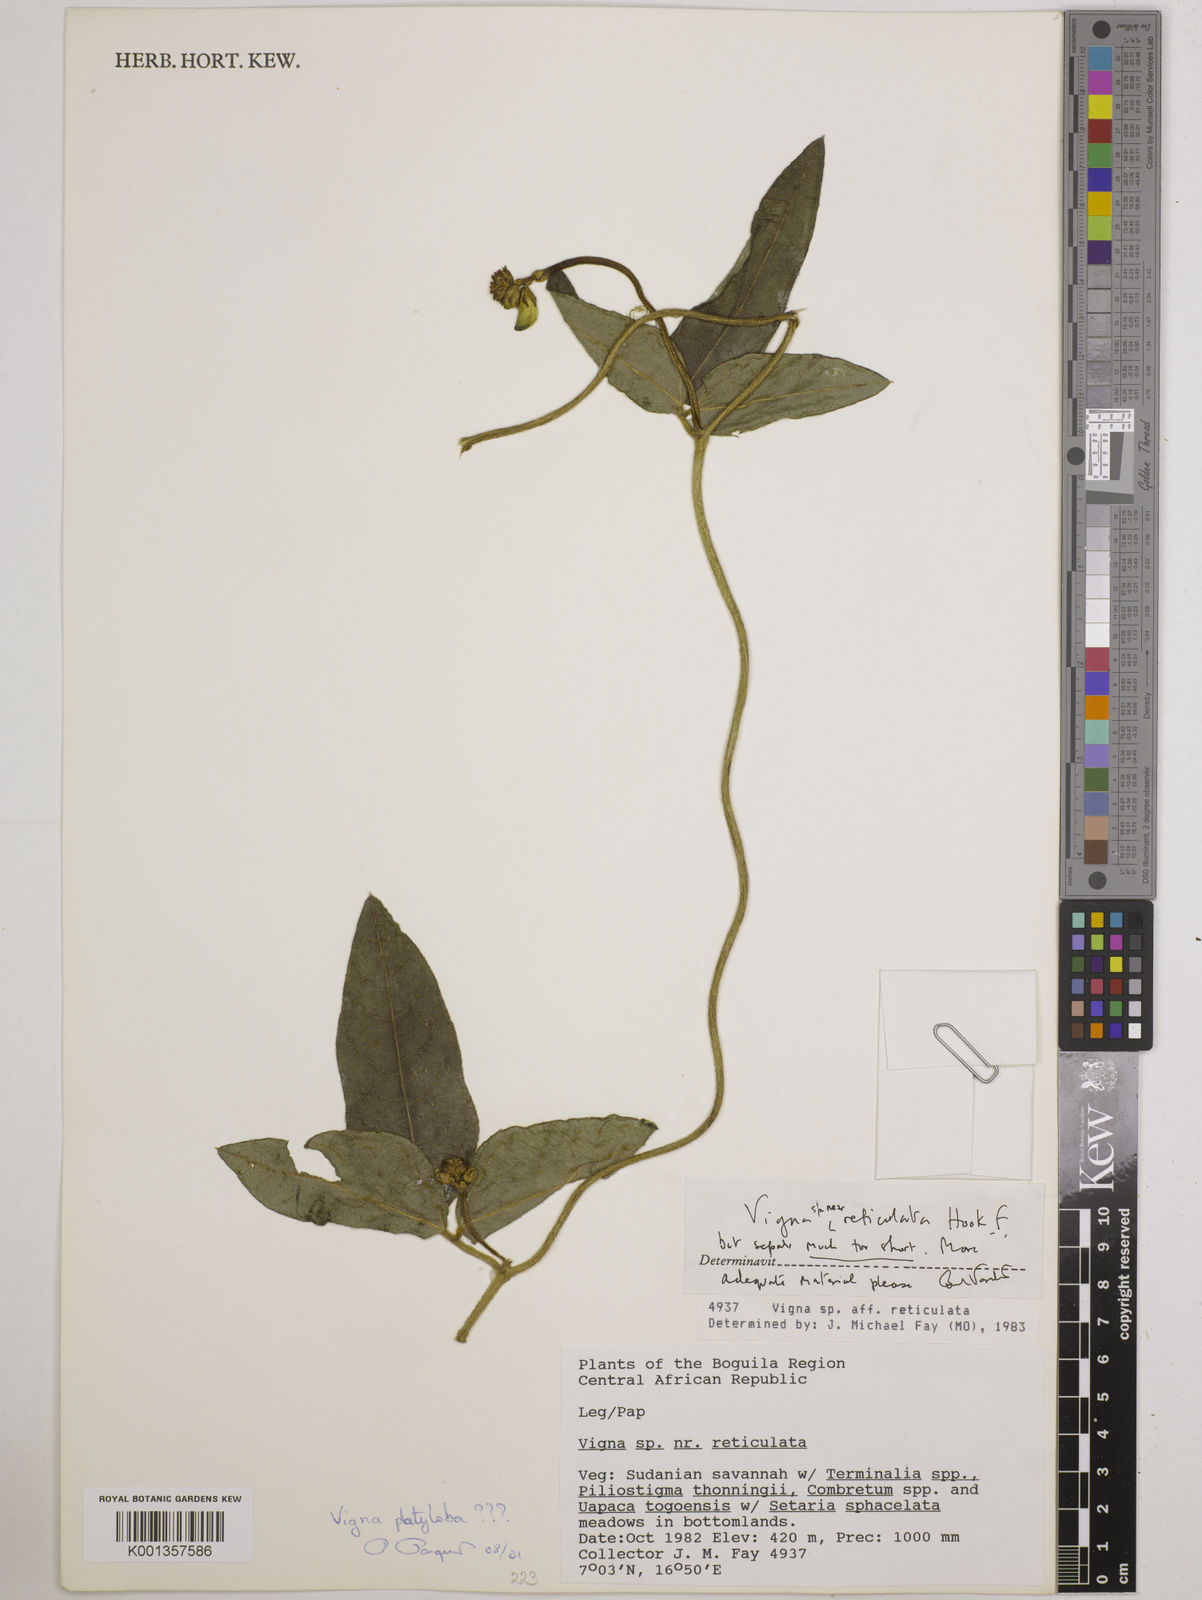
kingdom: Plantae
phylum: Tracheophyta
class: Magnoliopsida
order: Fabales
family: Fabaceae
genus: Vigna
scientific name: Vigna reticulata
